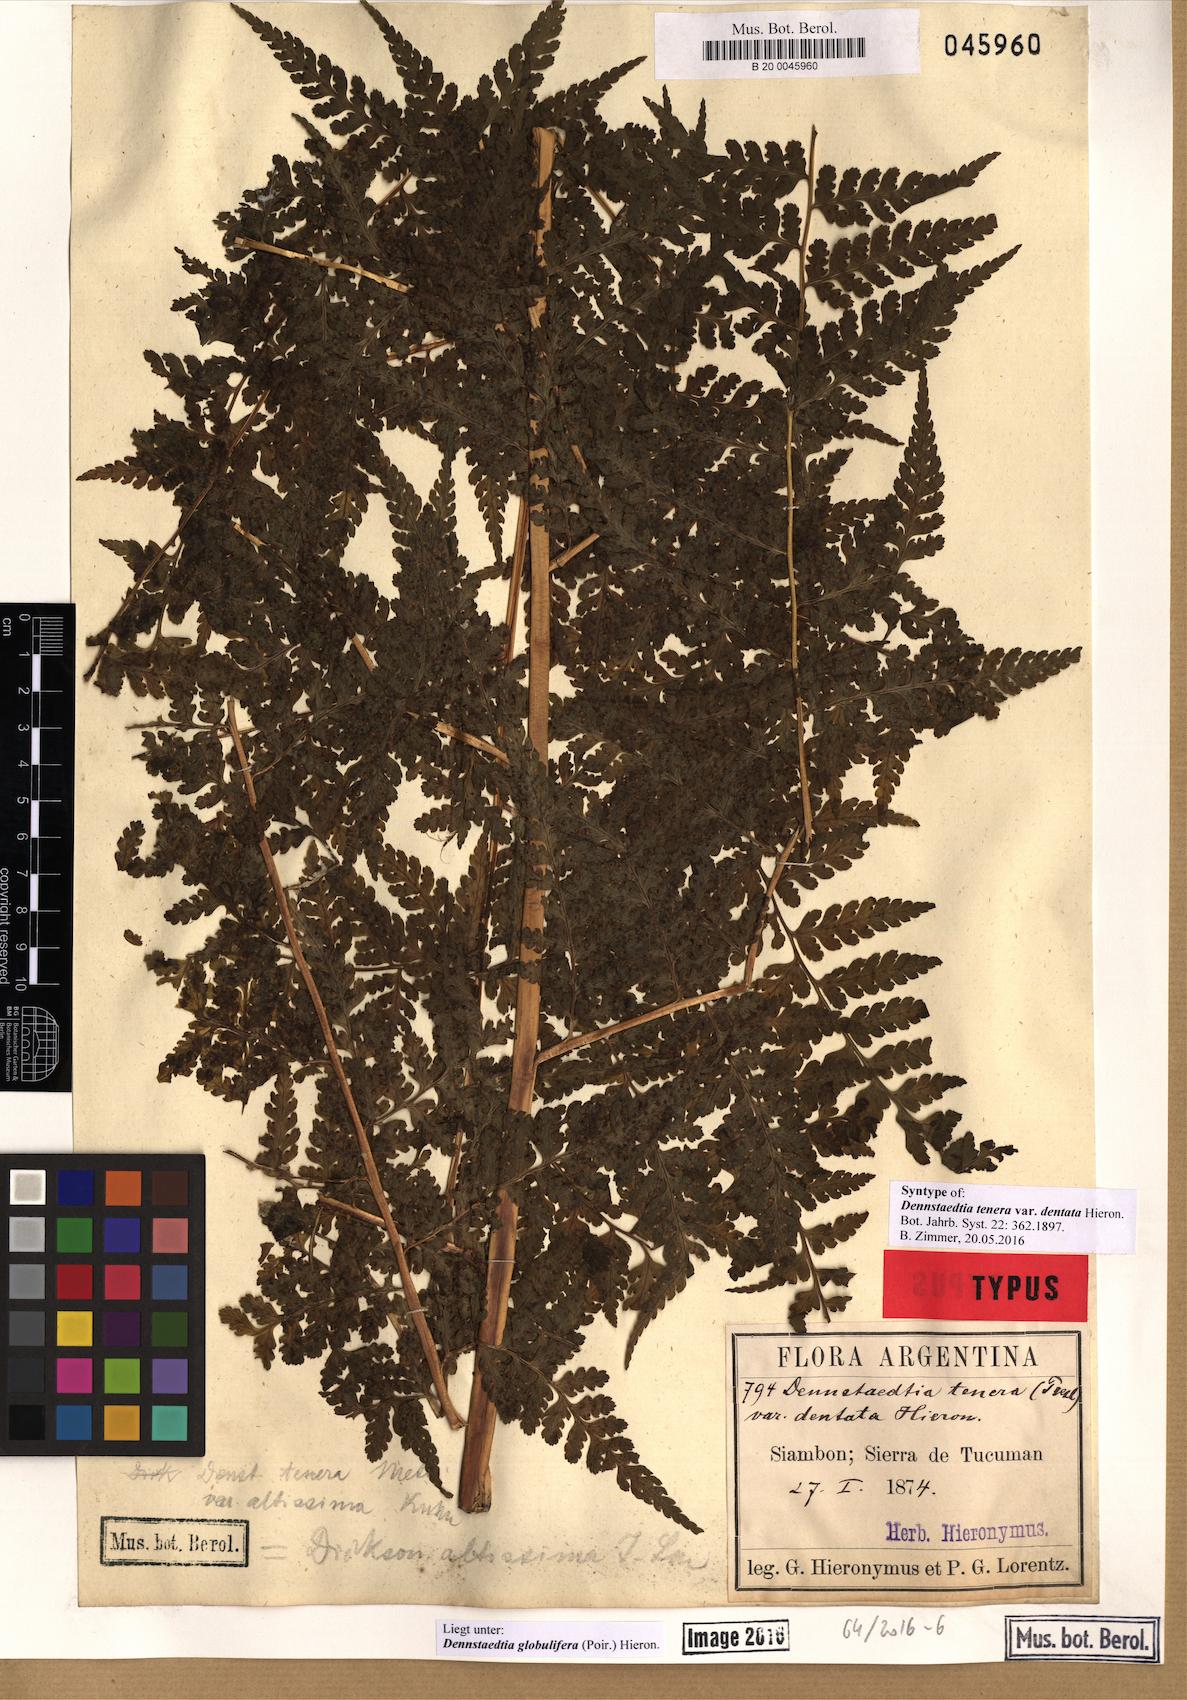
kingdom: Plantae
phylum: Tracheophyta
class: Polypodiopsida
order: Polypodiales
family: Dennstaedtiaceae
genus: Mucura
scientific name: Mucura globulifera
